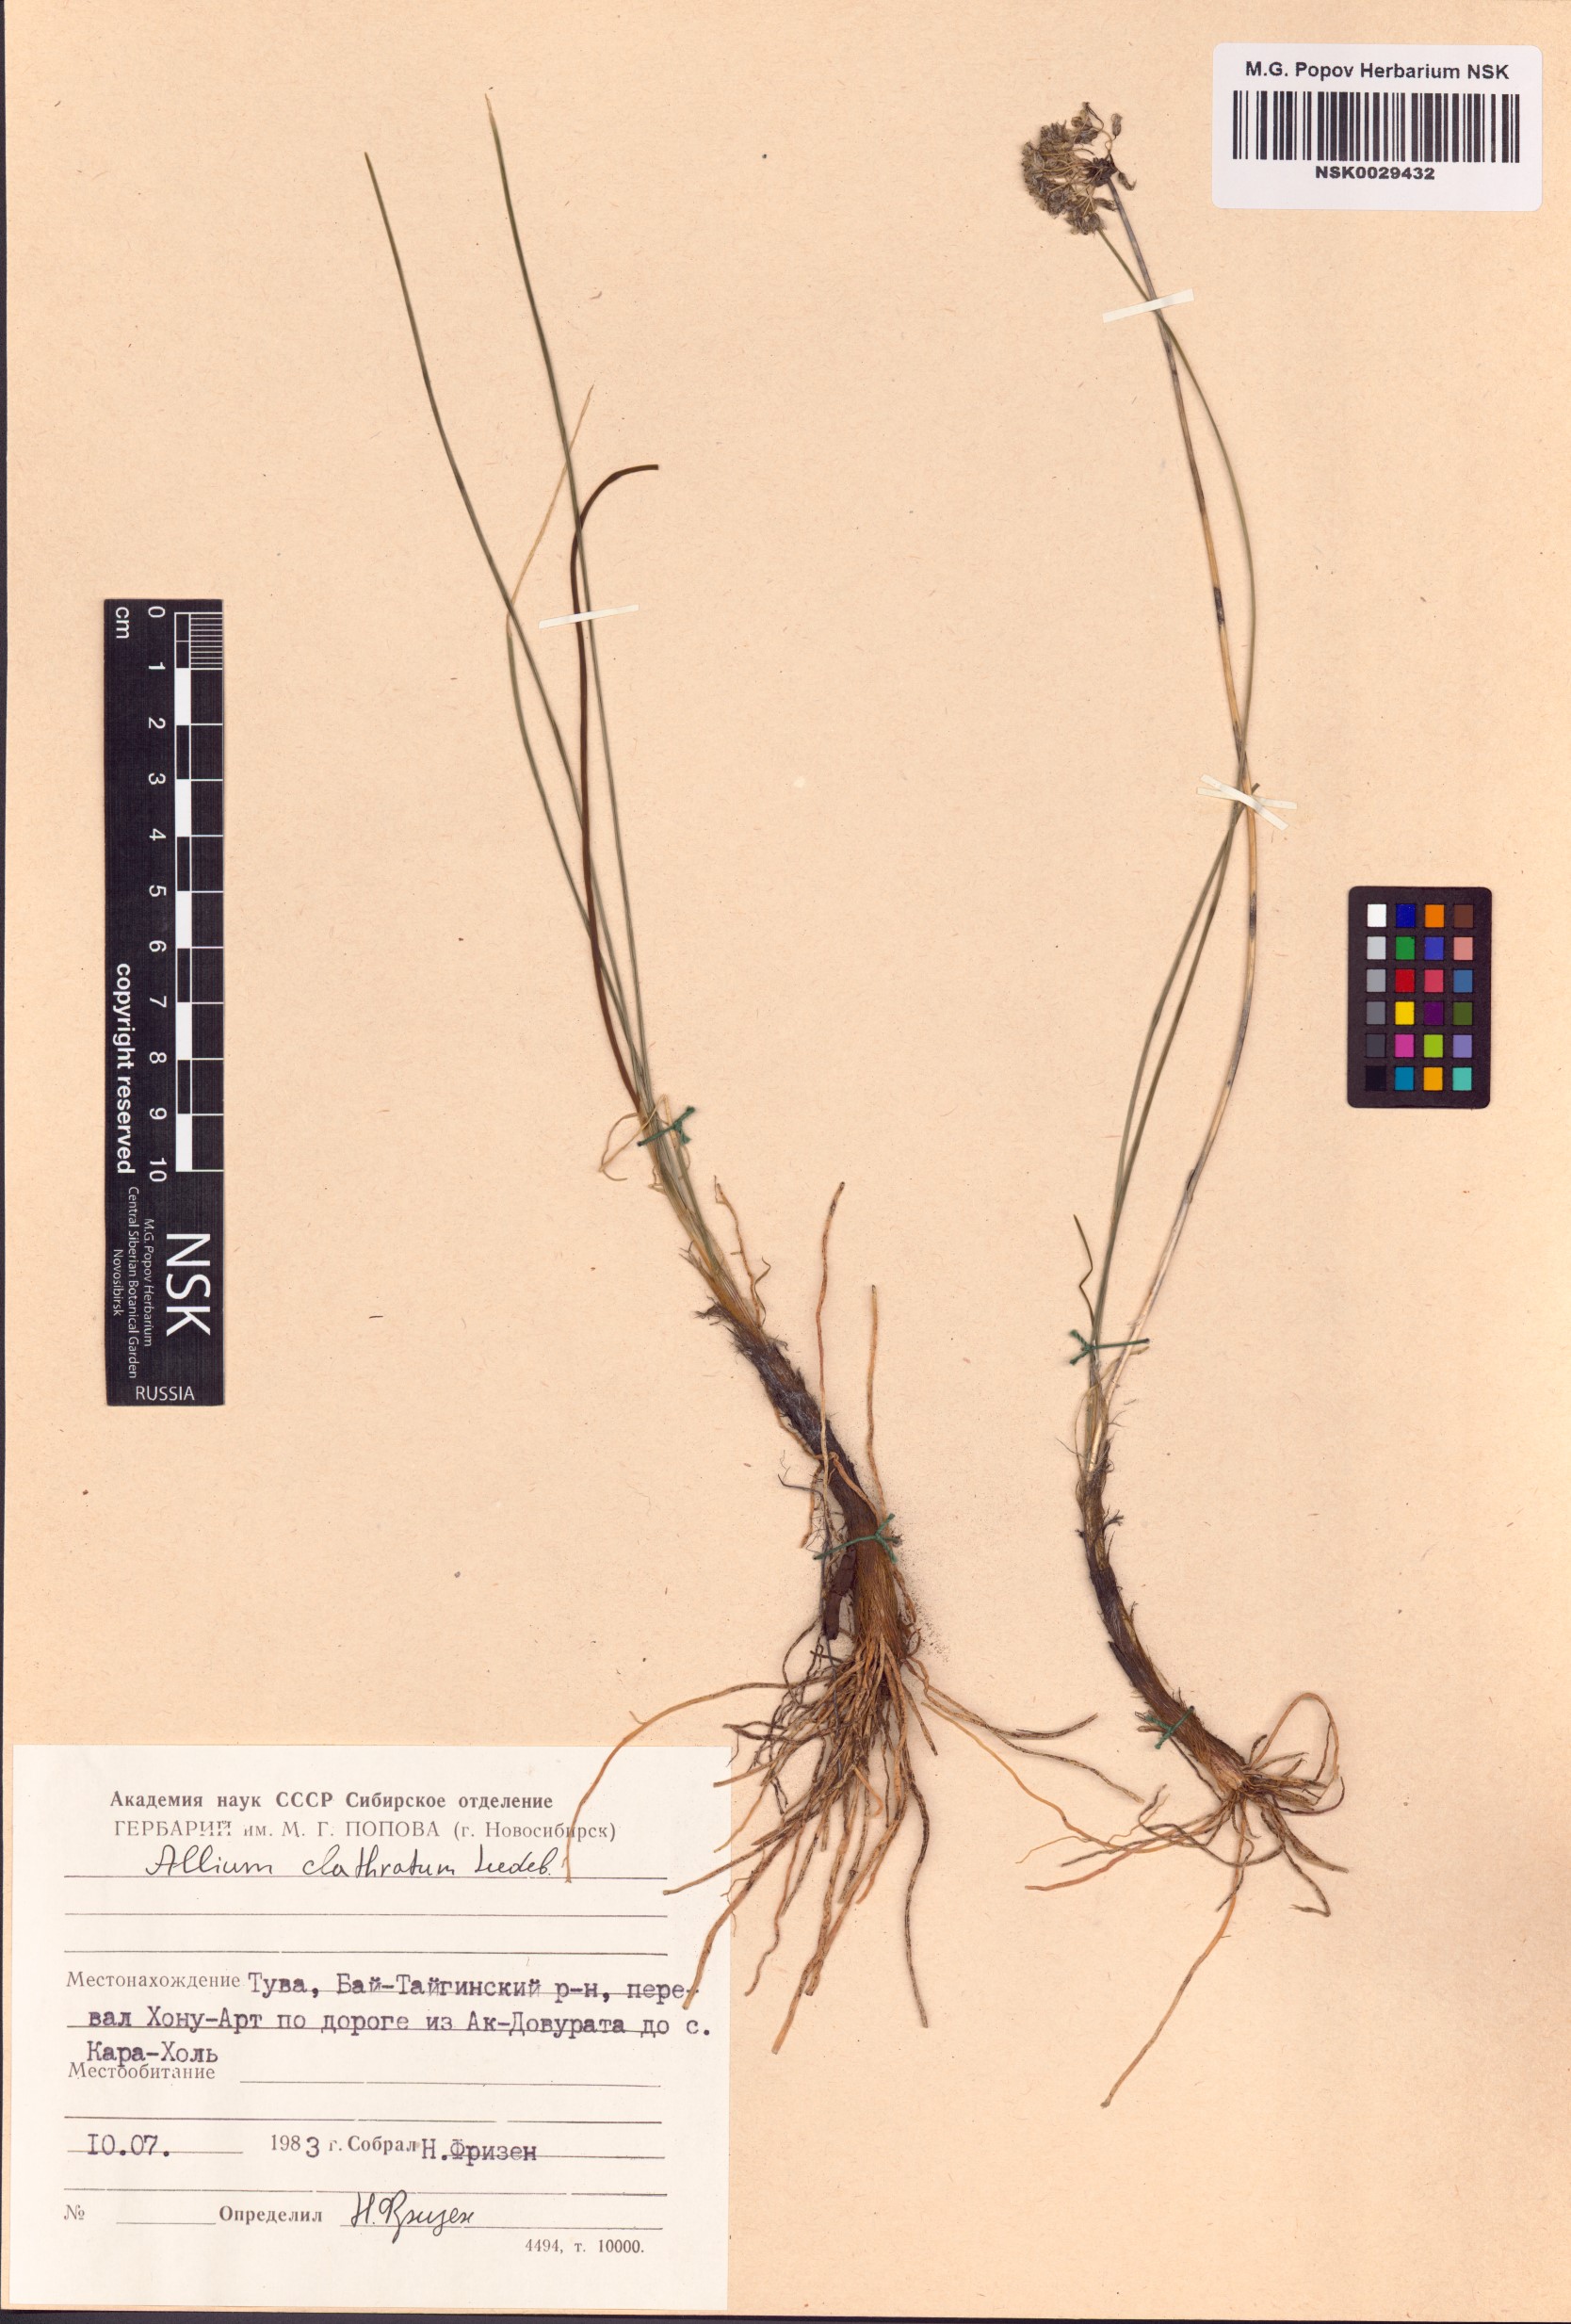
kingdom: Plantae
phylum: Tracheophyta
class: Liliopsida
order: Asparagales
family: Amaryllidaceae
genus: Allium
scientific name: Allium clathratum
